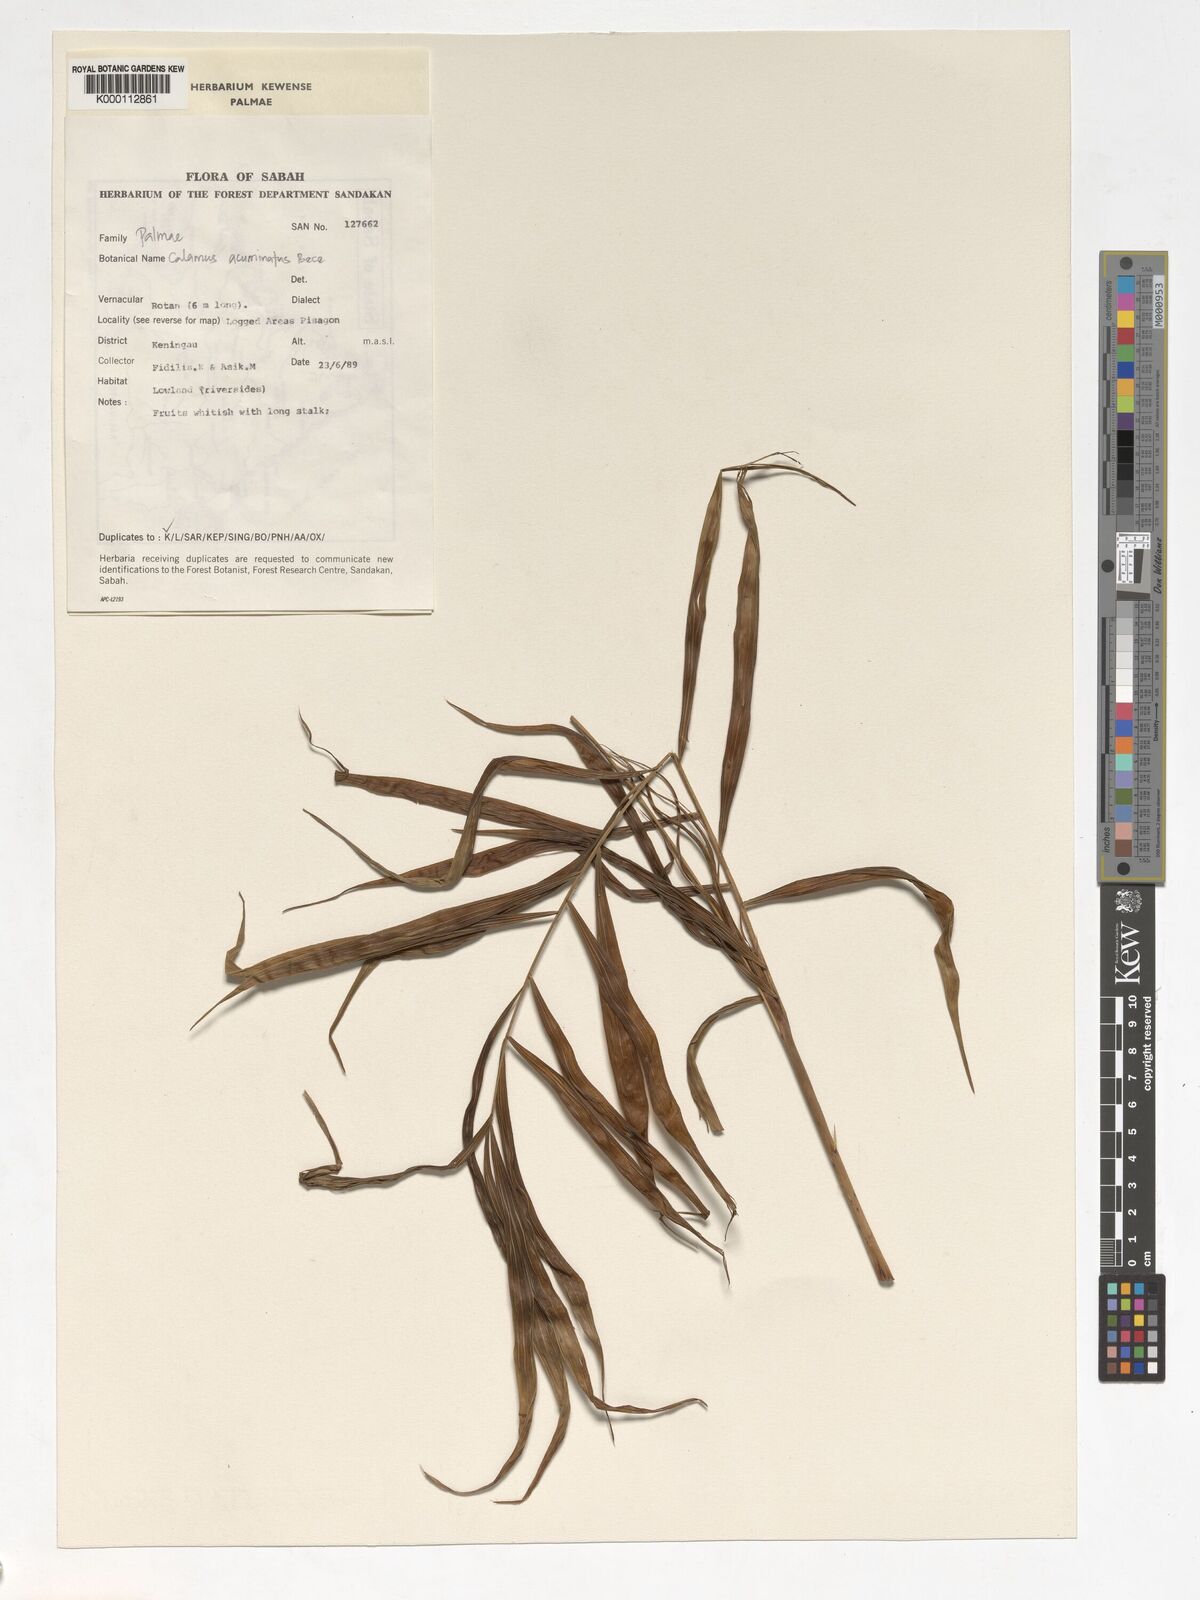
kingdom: Plantae
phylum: Tracheophyta
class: Liliopsida
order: Arecales
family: Arecaceae
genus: Calamus
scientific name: Calamus javensis
